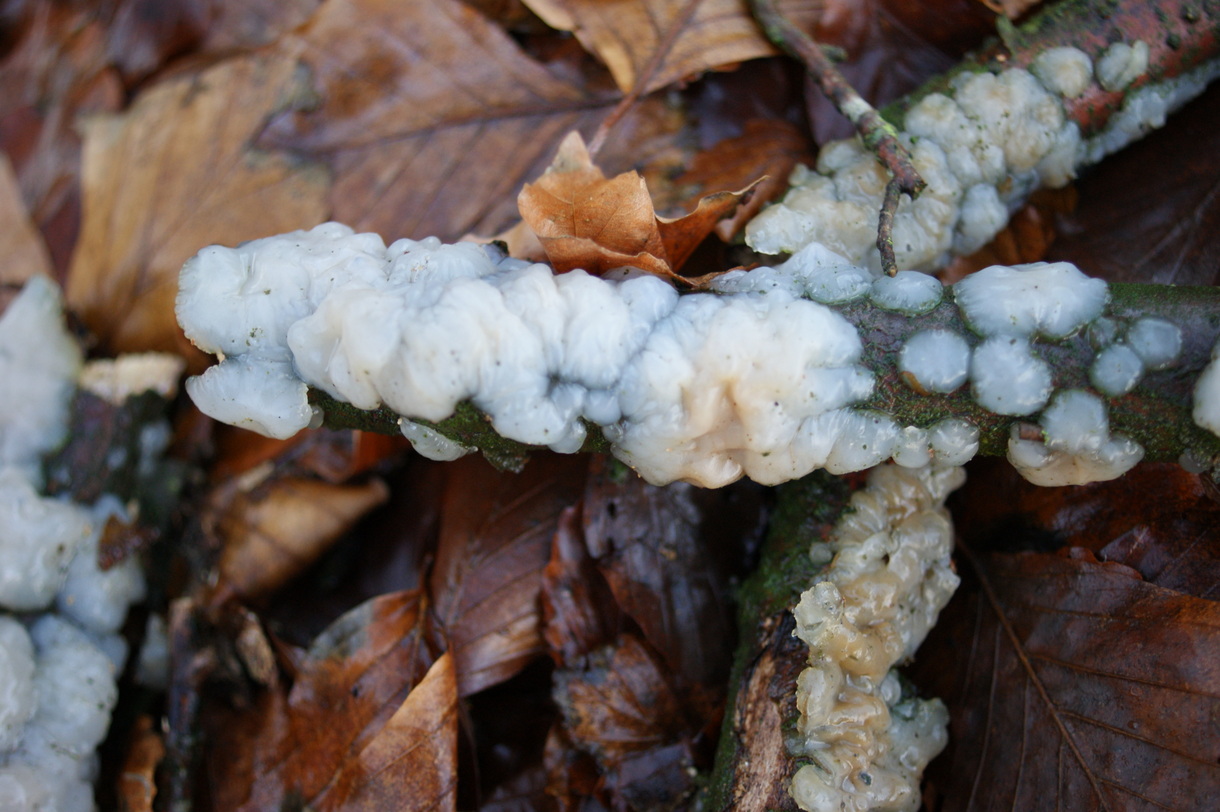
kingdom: Fungi
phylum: Basidiomycota
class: Agaricomycetes
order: Auriculariales
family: Auriculariaceae
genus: Exidia
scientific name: Exidia thuretiana
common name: hvidlig bævretop
